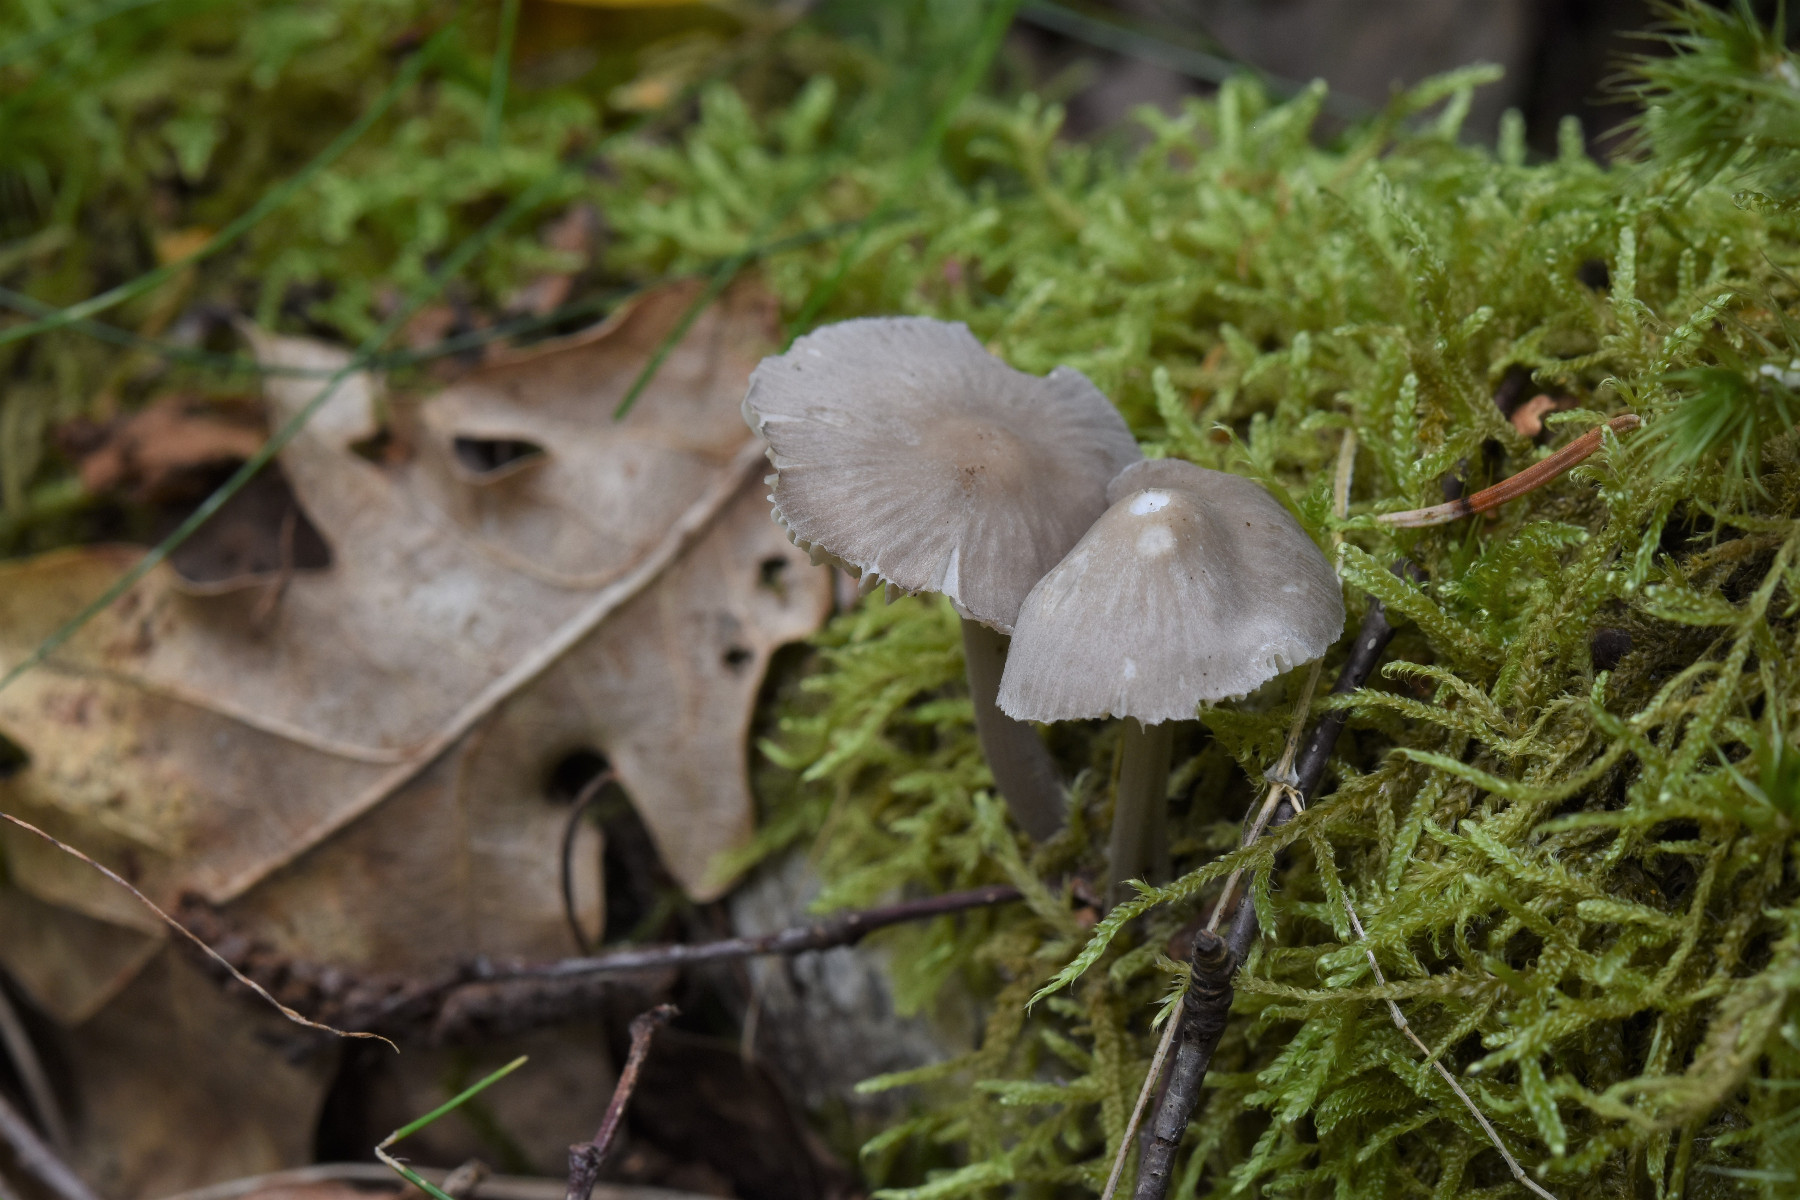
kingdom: Fungi
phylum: Basidiomycota
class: Agaricomycetes
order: Agaricales
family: Mycenaceae
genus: Mycena
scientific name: Mycena abramsii
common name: sommer-huesvamp
